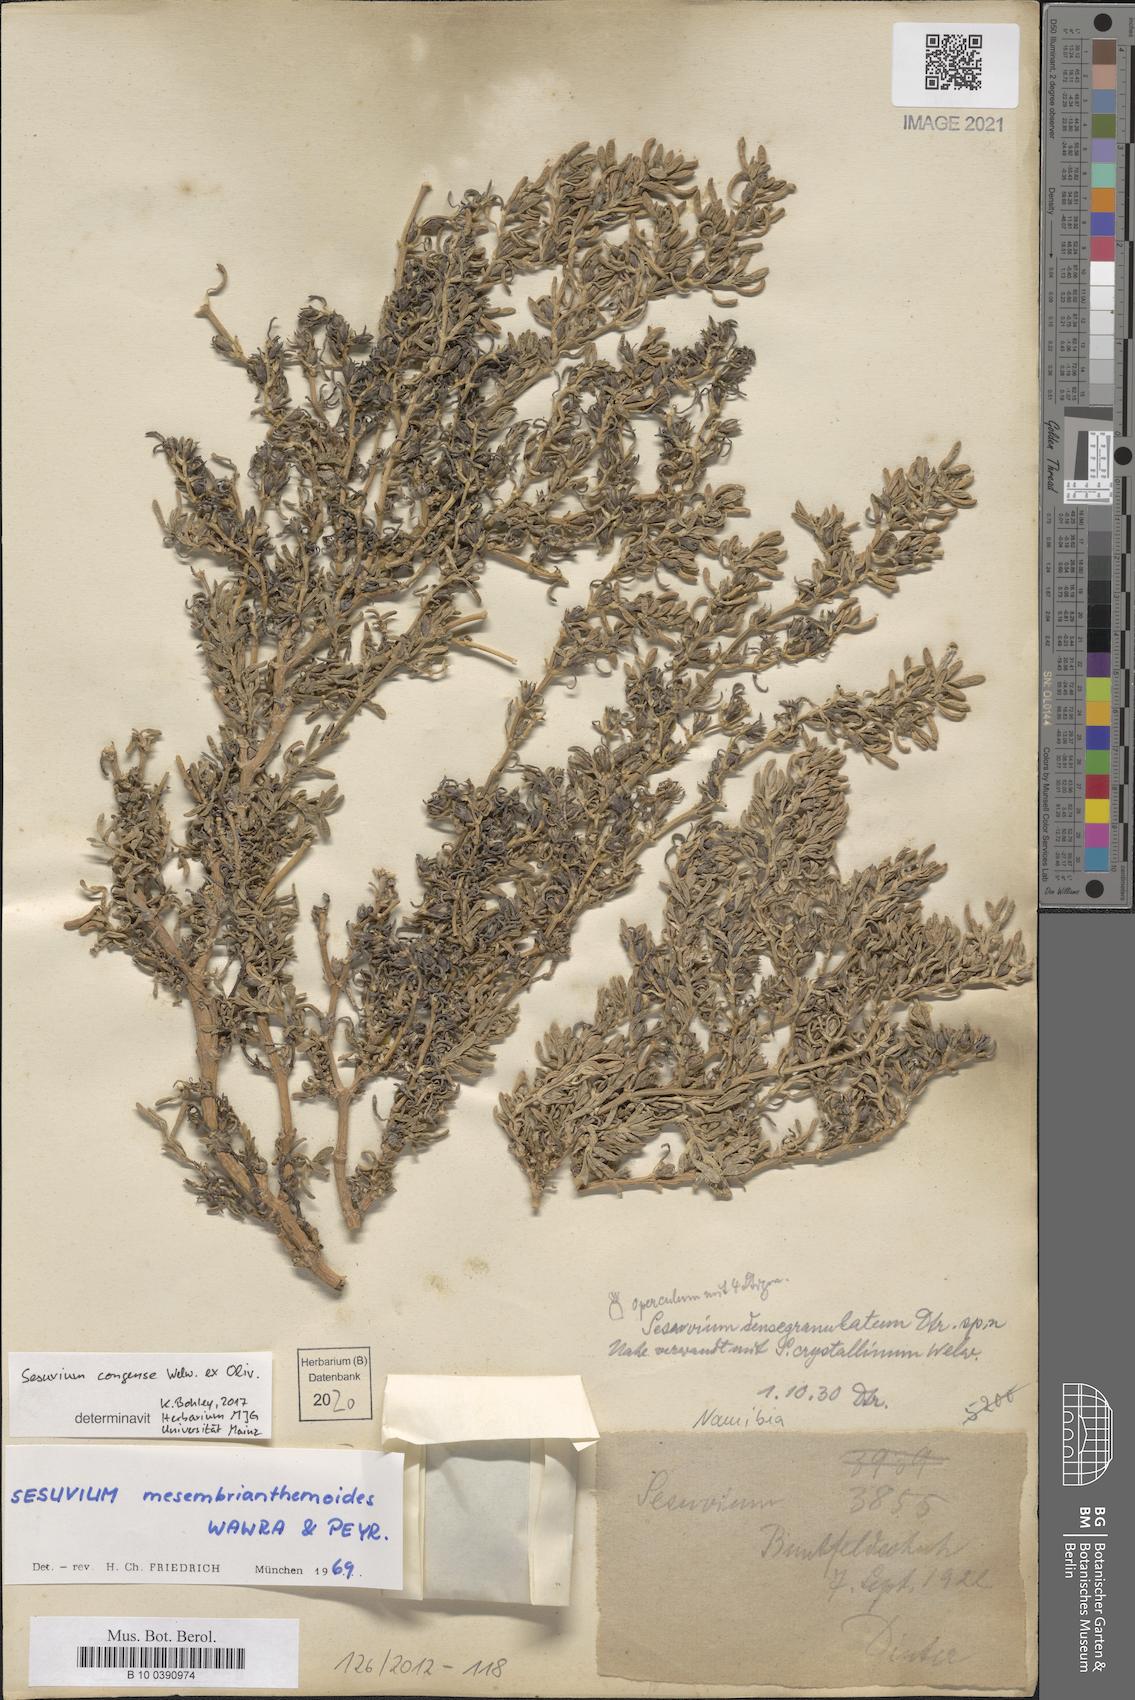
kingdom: Plantae
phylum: Tracheophyta
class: Magnoliopsida
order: Caryophyllales
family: Aizoaceae
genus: Sesuvium
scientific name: Sesuvium congense
